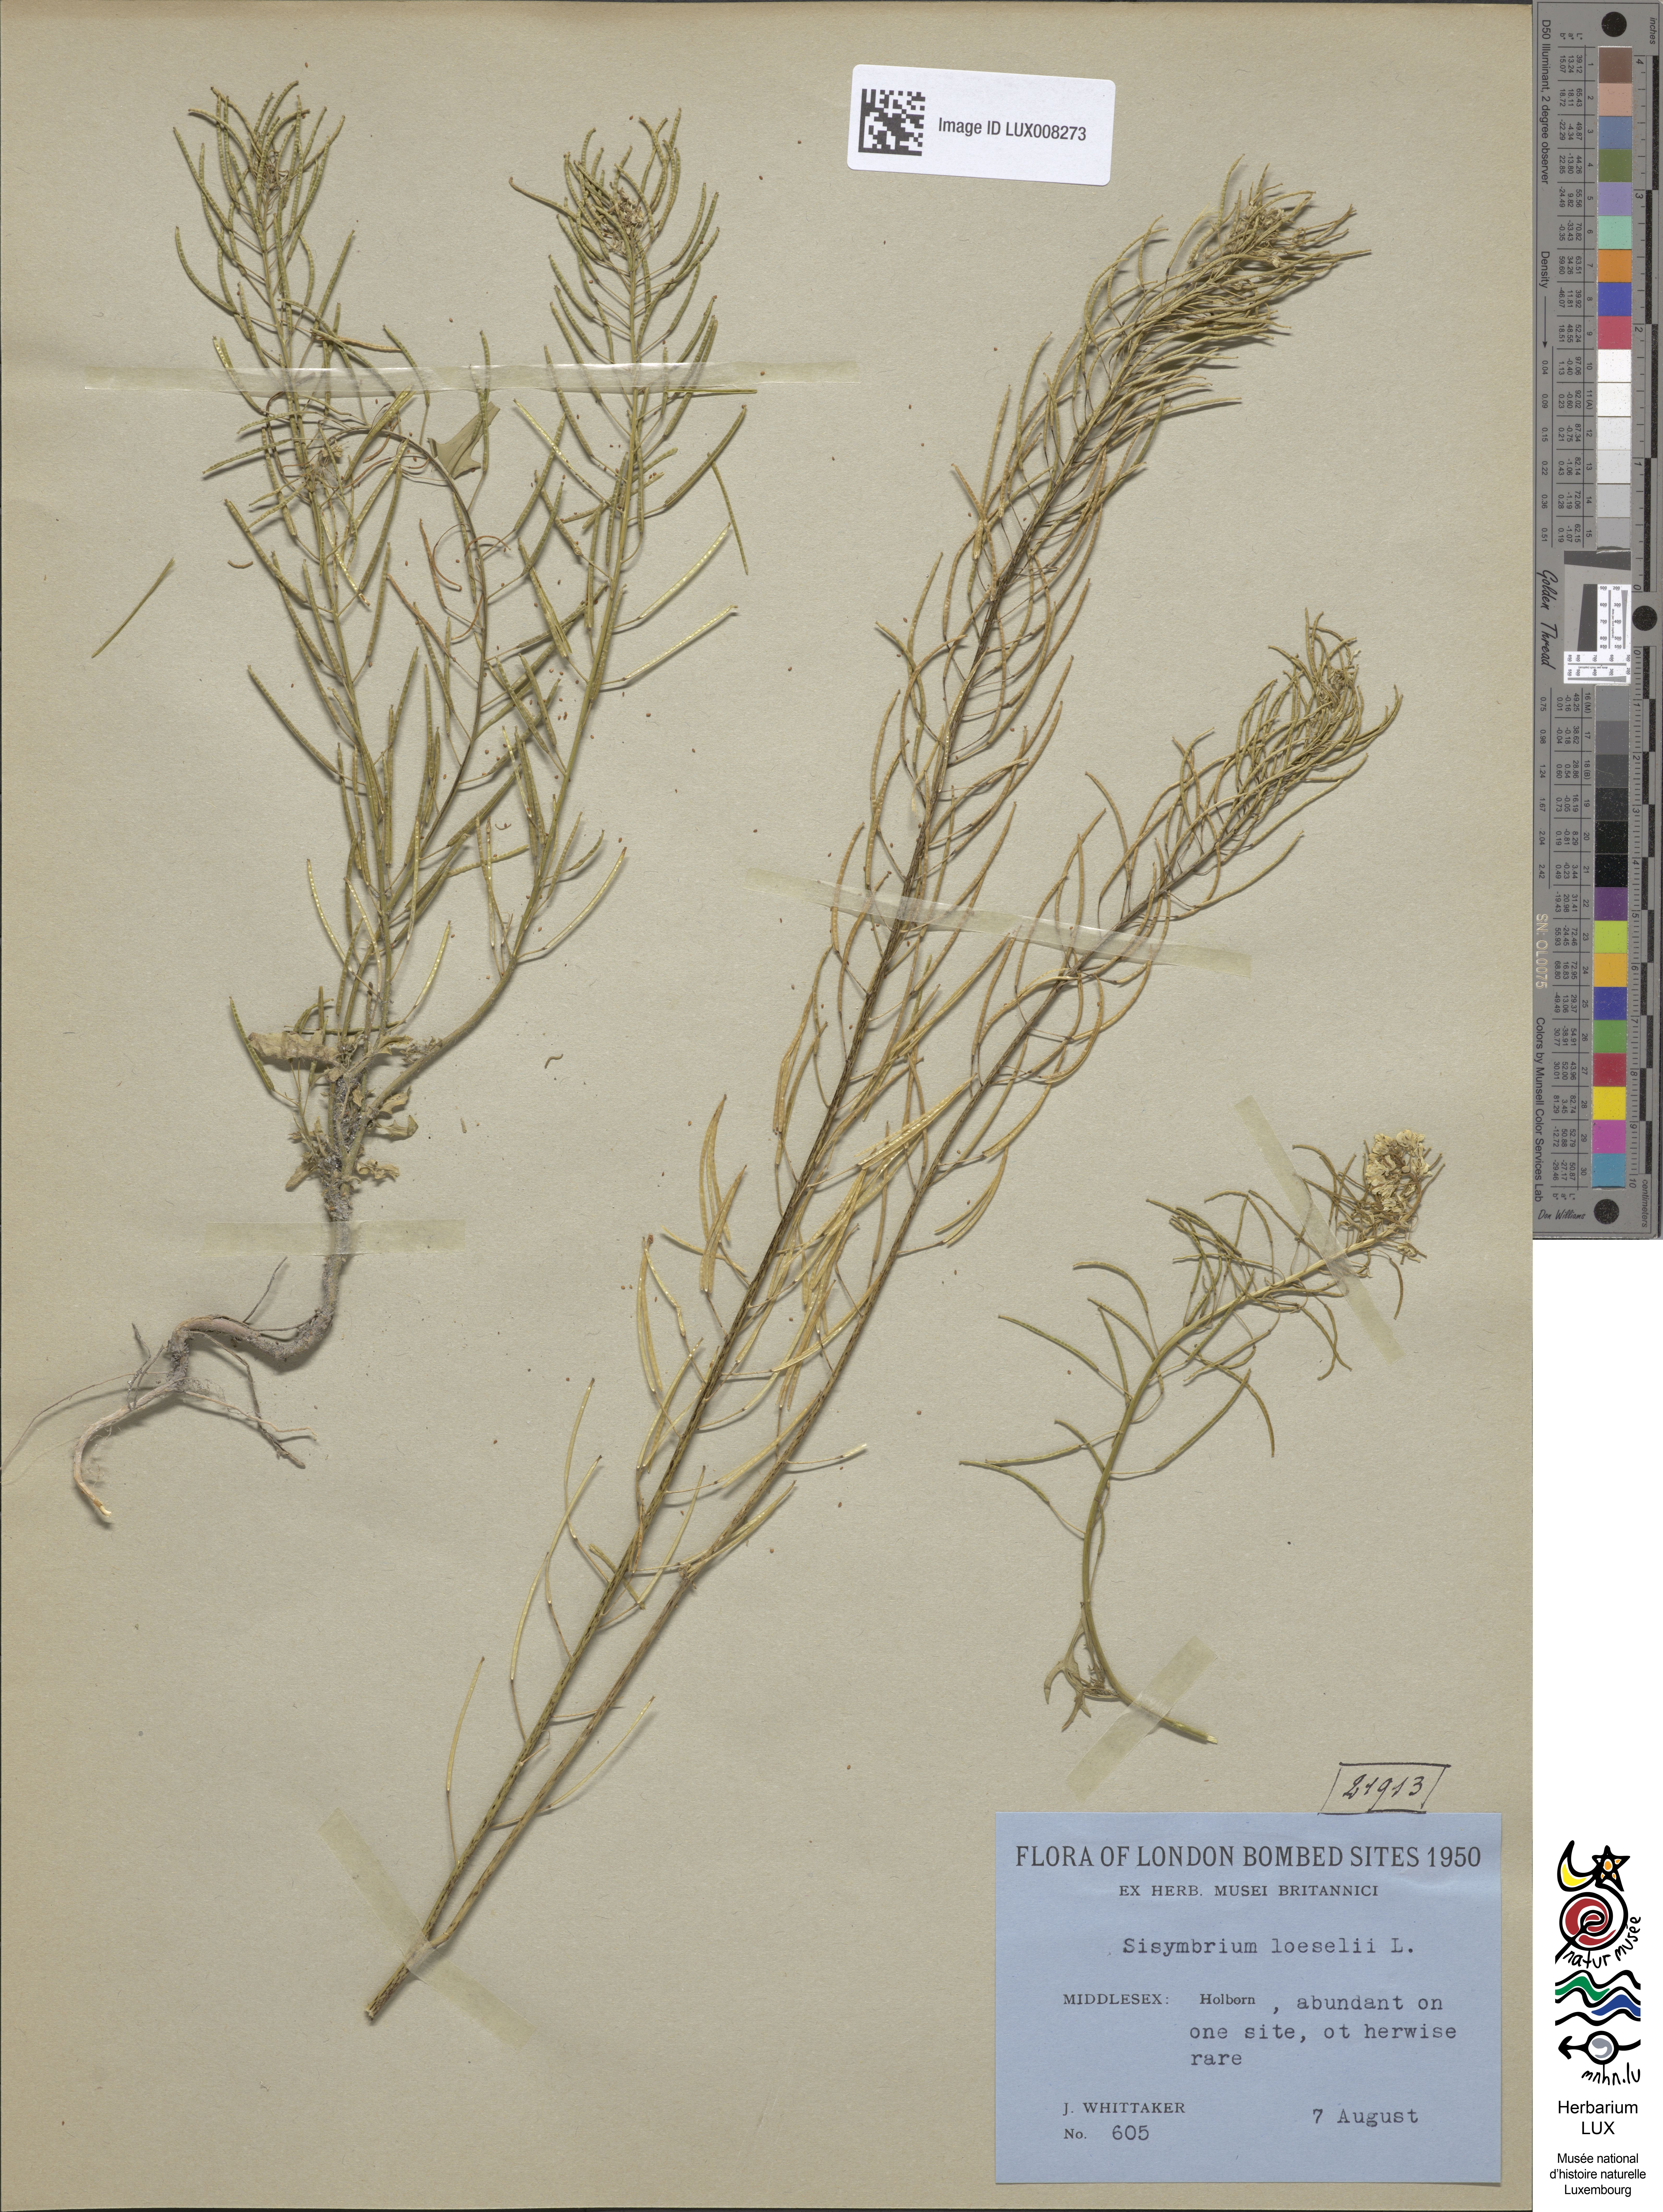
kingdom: Plantae
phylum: Tracheophyta
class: Magnoliopsida
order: Brassicales
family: Brassicaceae
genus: Sisymbrium
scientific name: Sisymbrium loeselii
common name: False london-rocket
